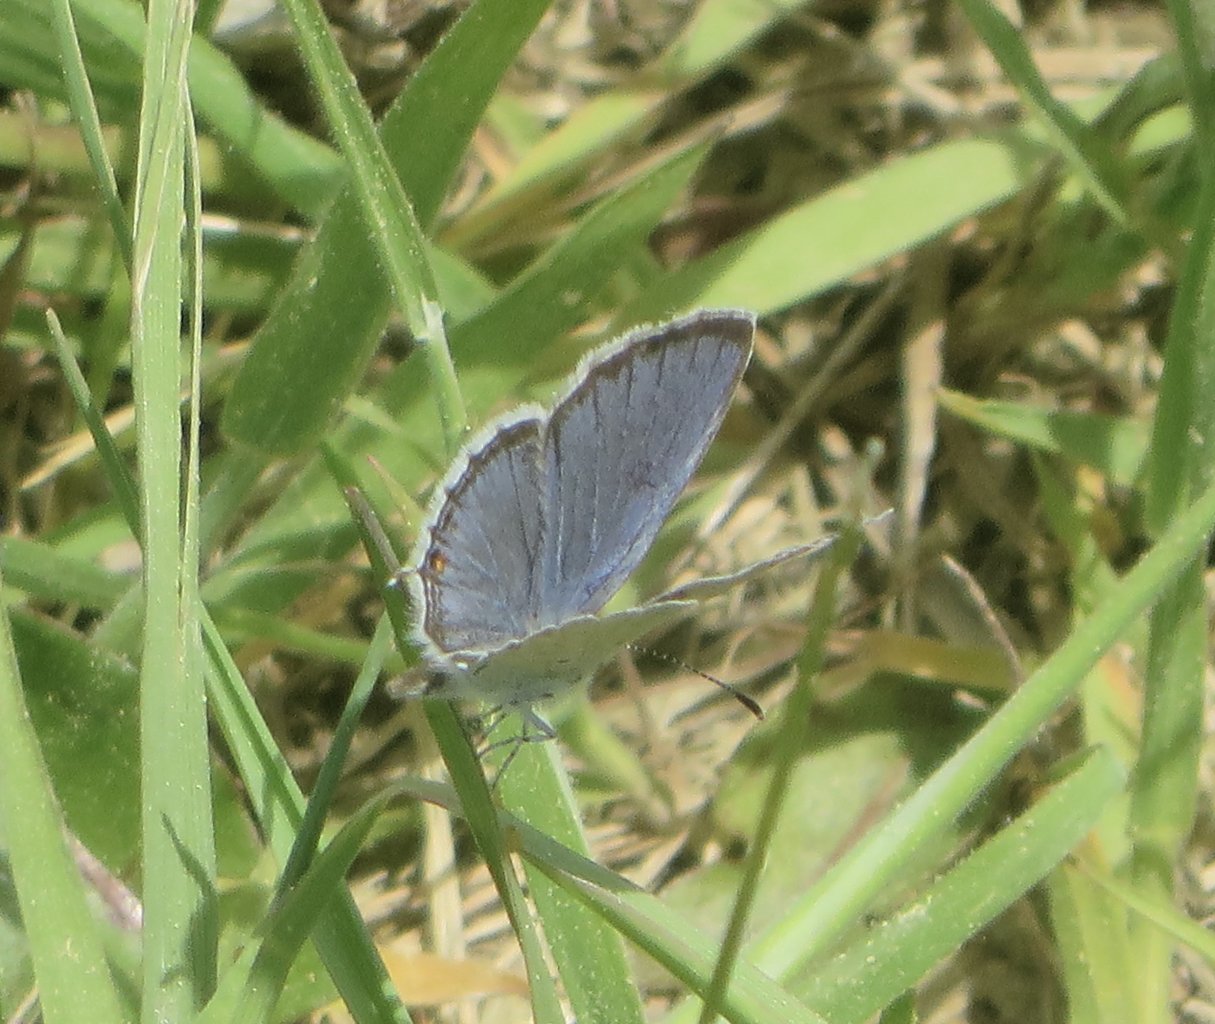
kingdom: Animalia
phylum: Arthropoda
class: Insecta
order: Lepidoptera
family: Lycaenidae
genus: Elkalyce
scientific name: Elkalyce comyntas
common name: Eastern Tailed-Blue
